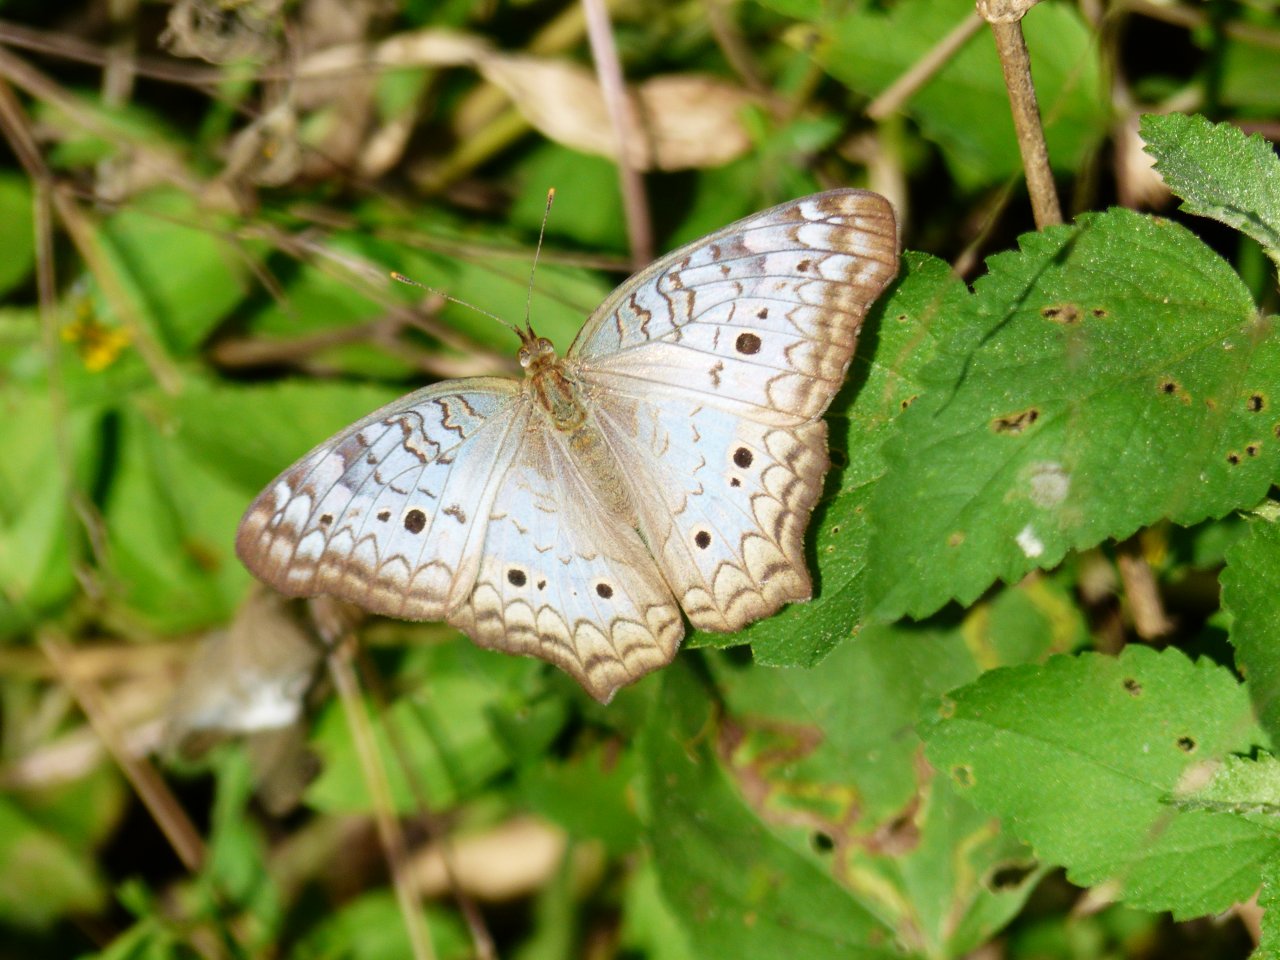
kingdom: Animalia
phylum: Arthropoda
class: Insecta
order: Lepidoptera
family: Nymphalidae
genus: Anartia
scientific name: Anartia jatrophae
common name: White Peacock
